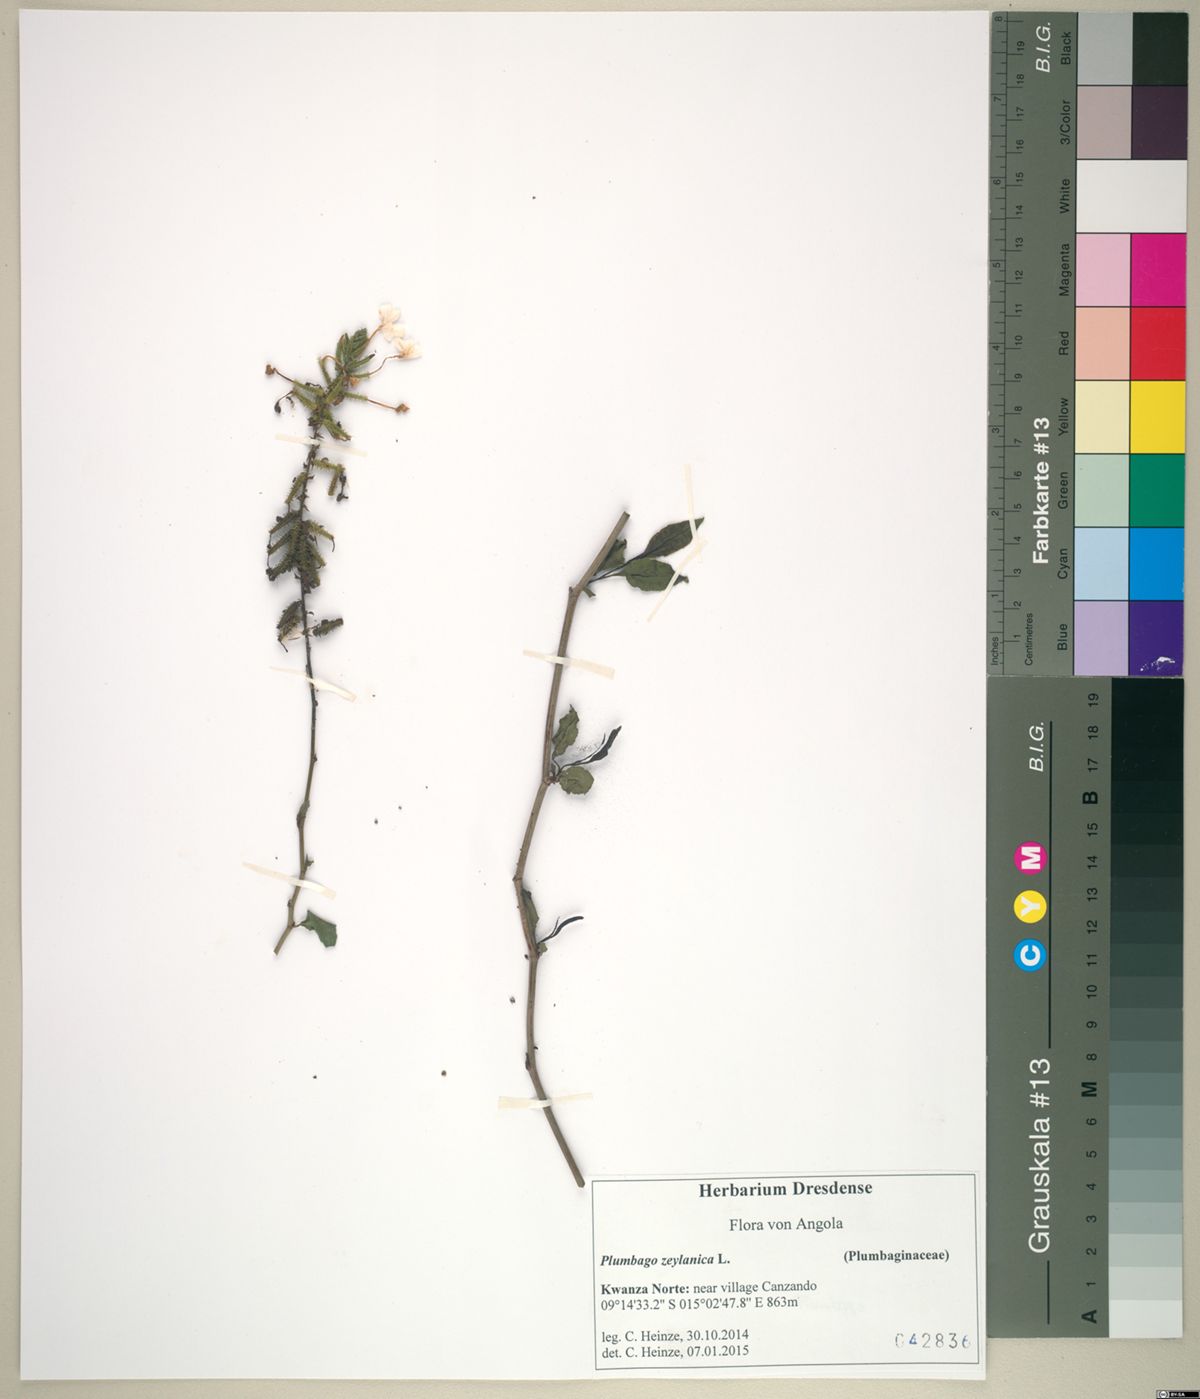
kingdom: Plantae
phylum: Tracheophyta
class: Magnoliopsida
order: Caryophyllales
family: Plumbaginaceae
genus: Plumbago
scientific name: Plumbago zeylanica
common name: Doctorbush
